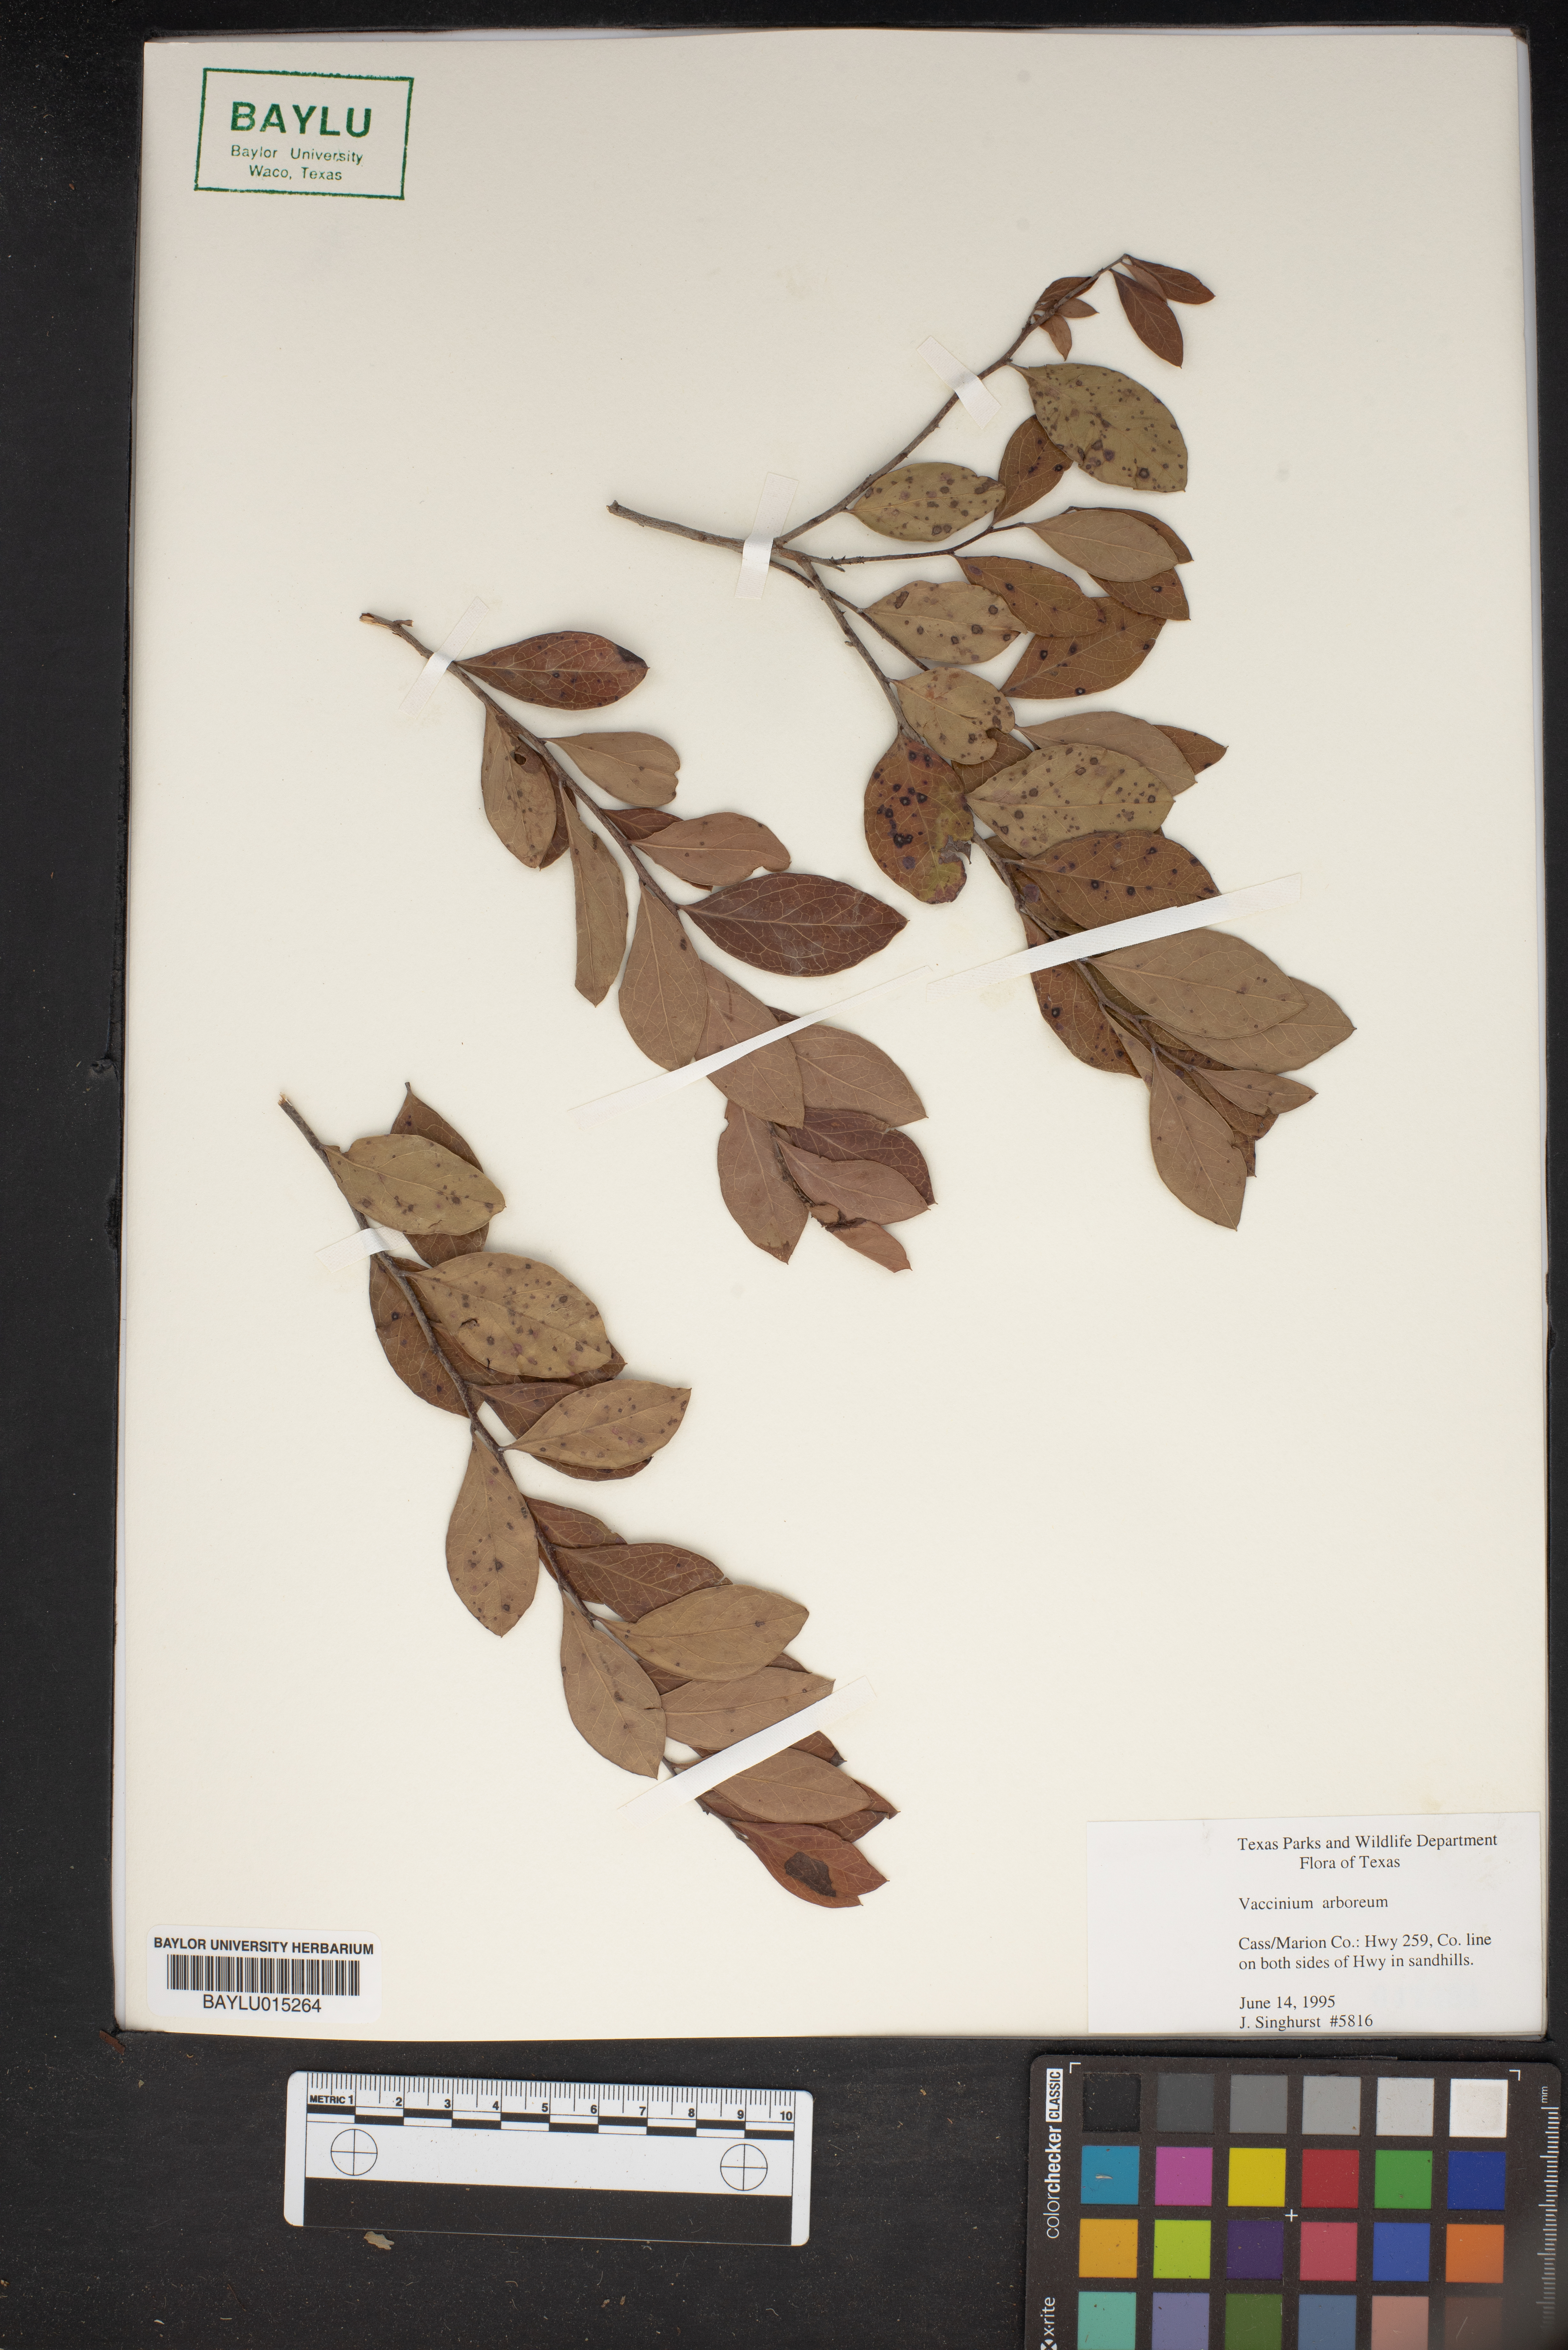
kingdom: Plantae
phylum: Tracheophyta
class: Magnoliopsida
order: Ericales
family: Ericaceae
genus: Vaccinium
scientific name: Vaccinium arboreum
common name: Farkleberry
